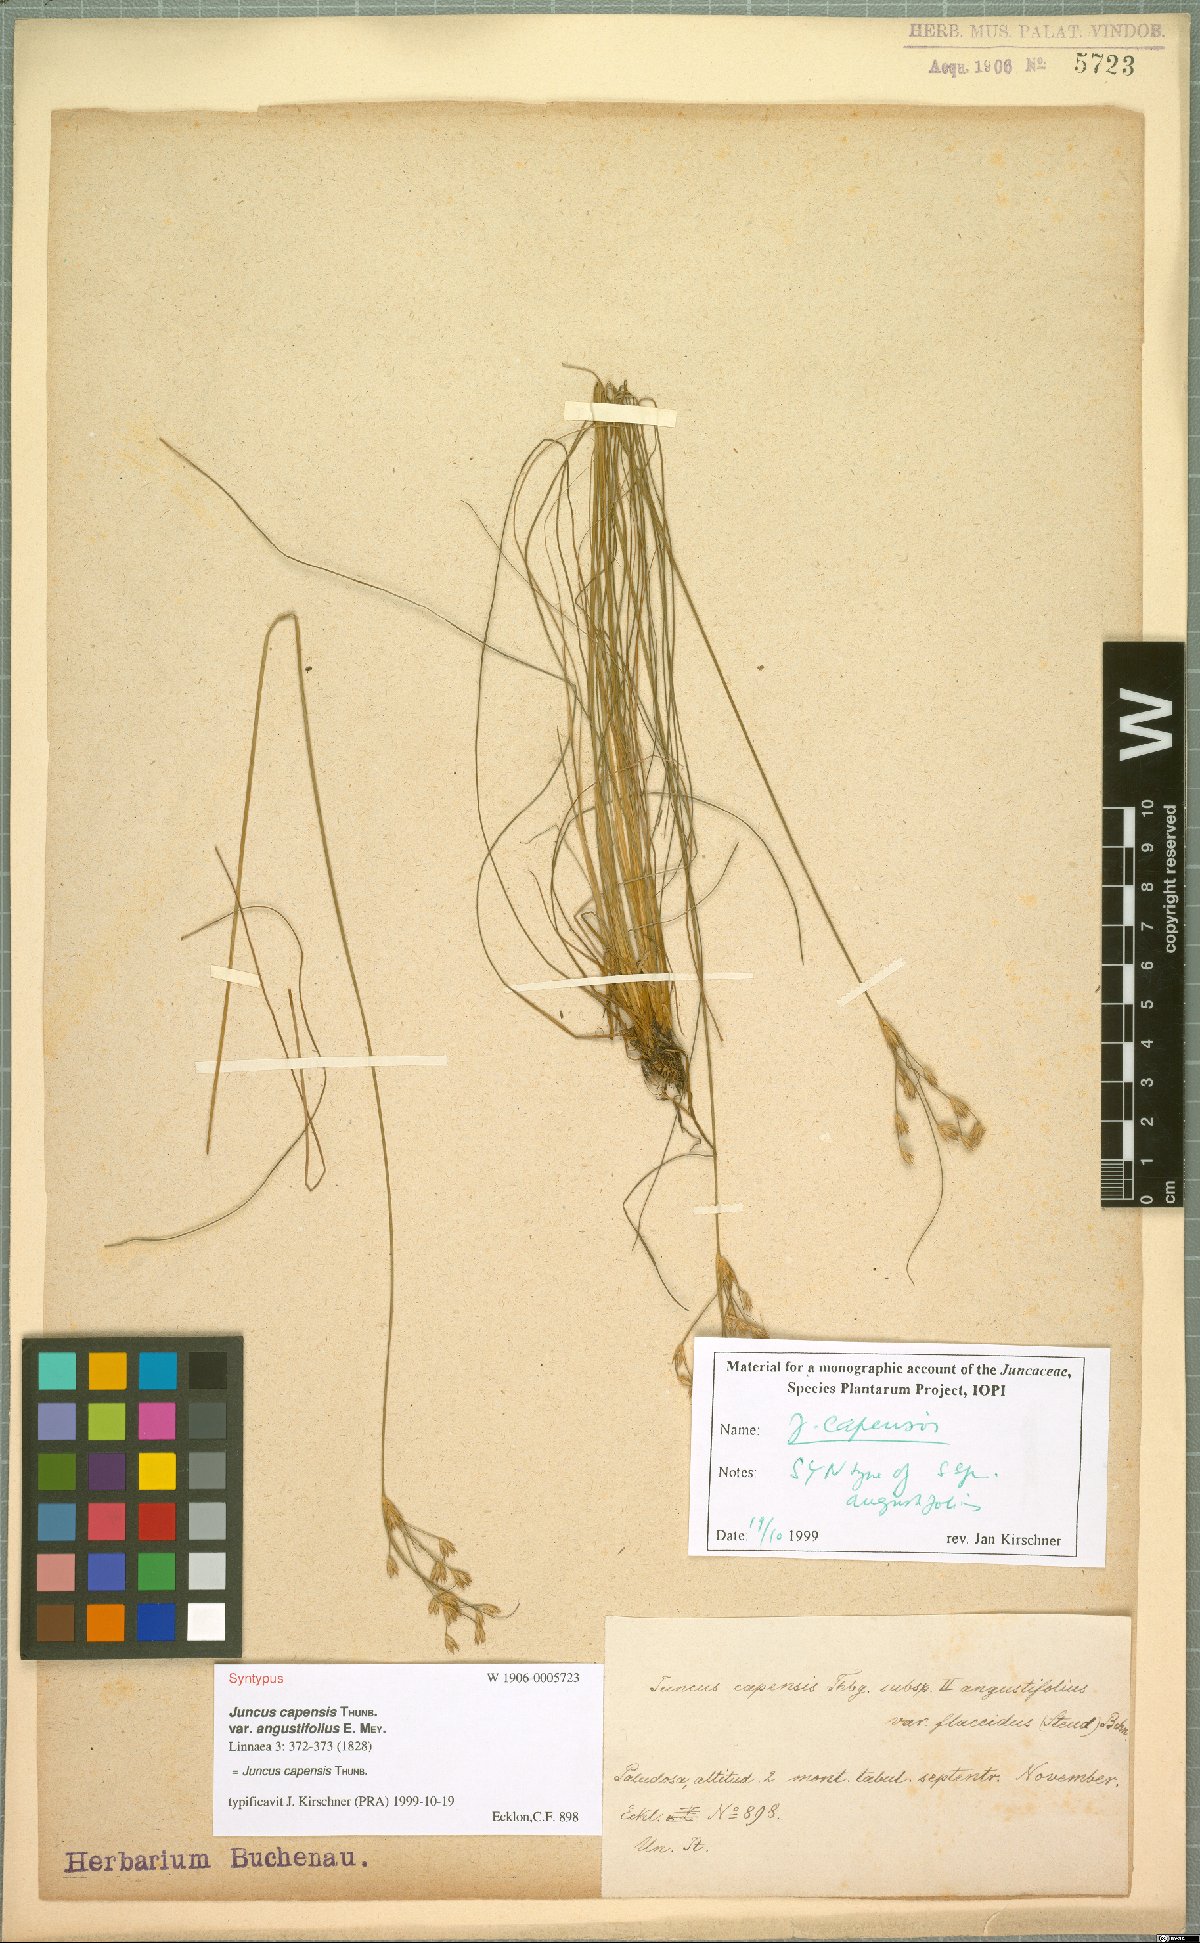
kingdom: Plantae
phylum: Tracheophyta
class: Liliopsida
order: Poales
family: Juncaceae
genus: Juncus
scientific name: Juncus capensis
